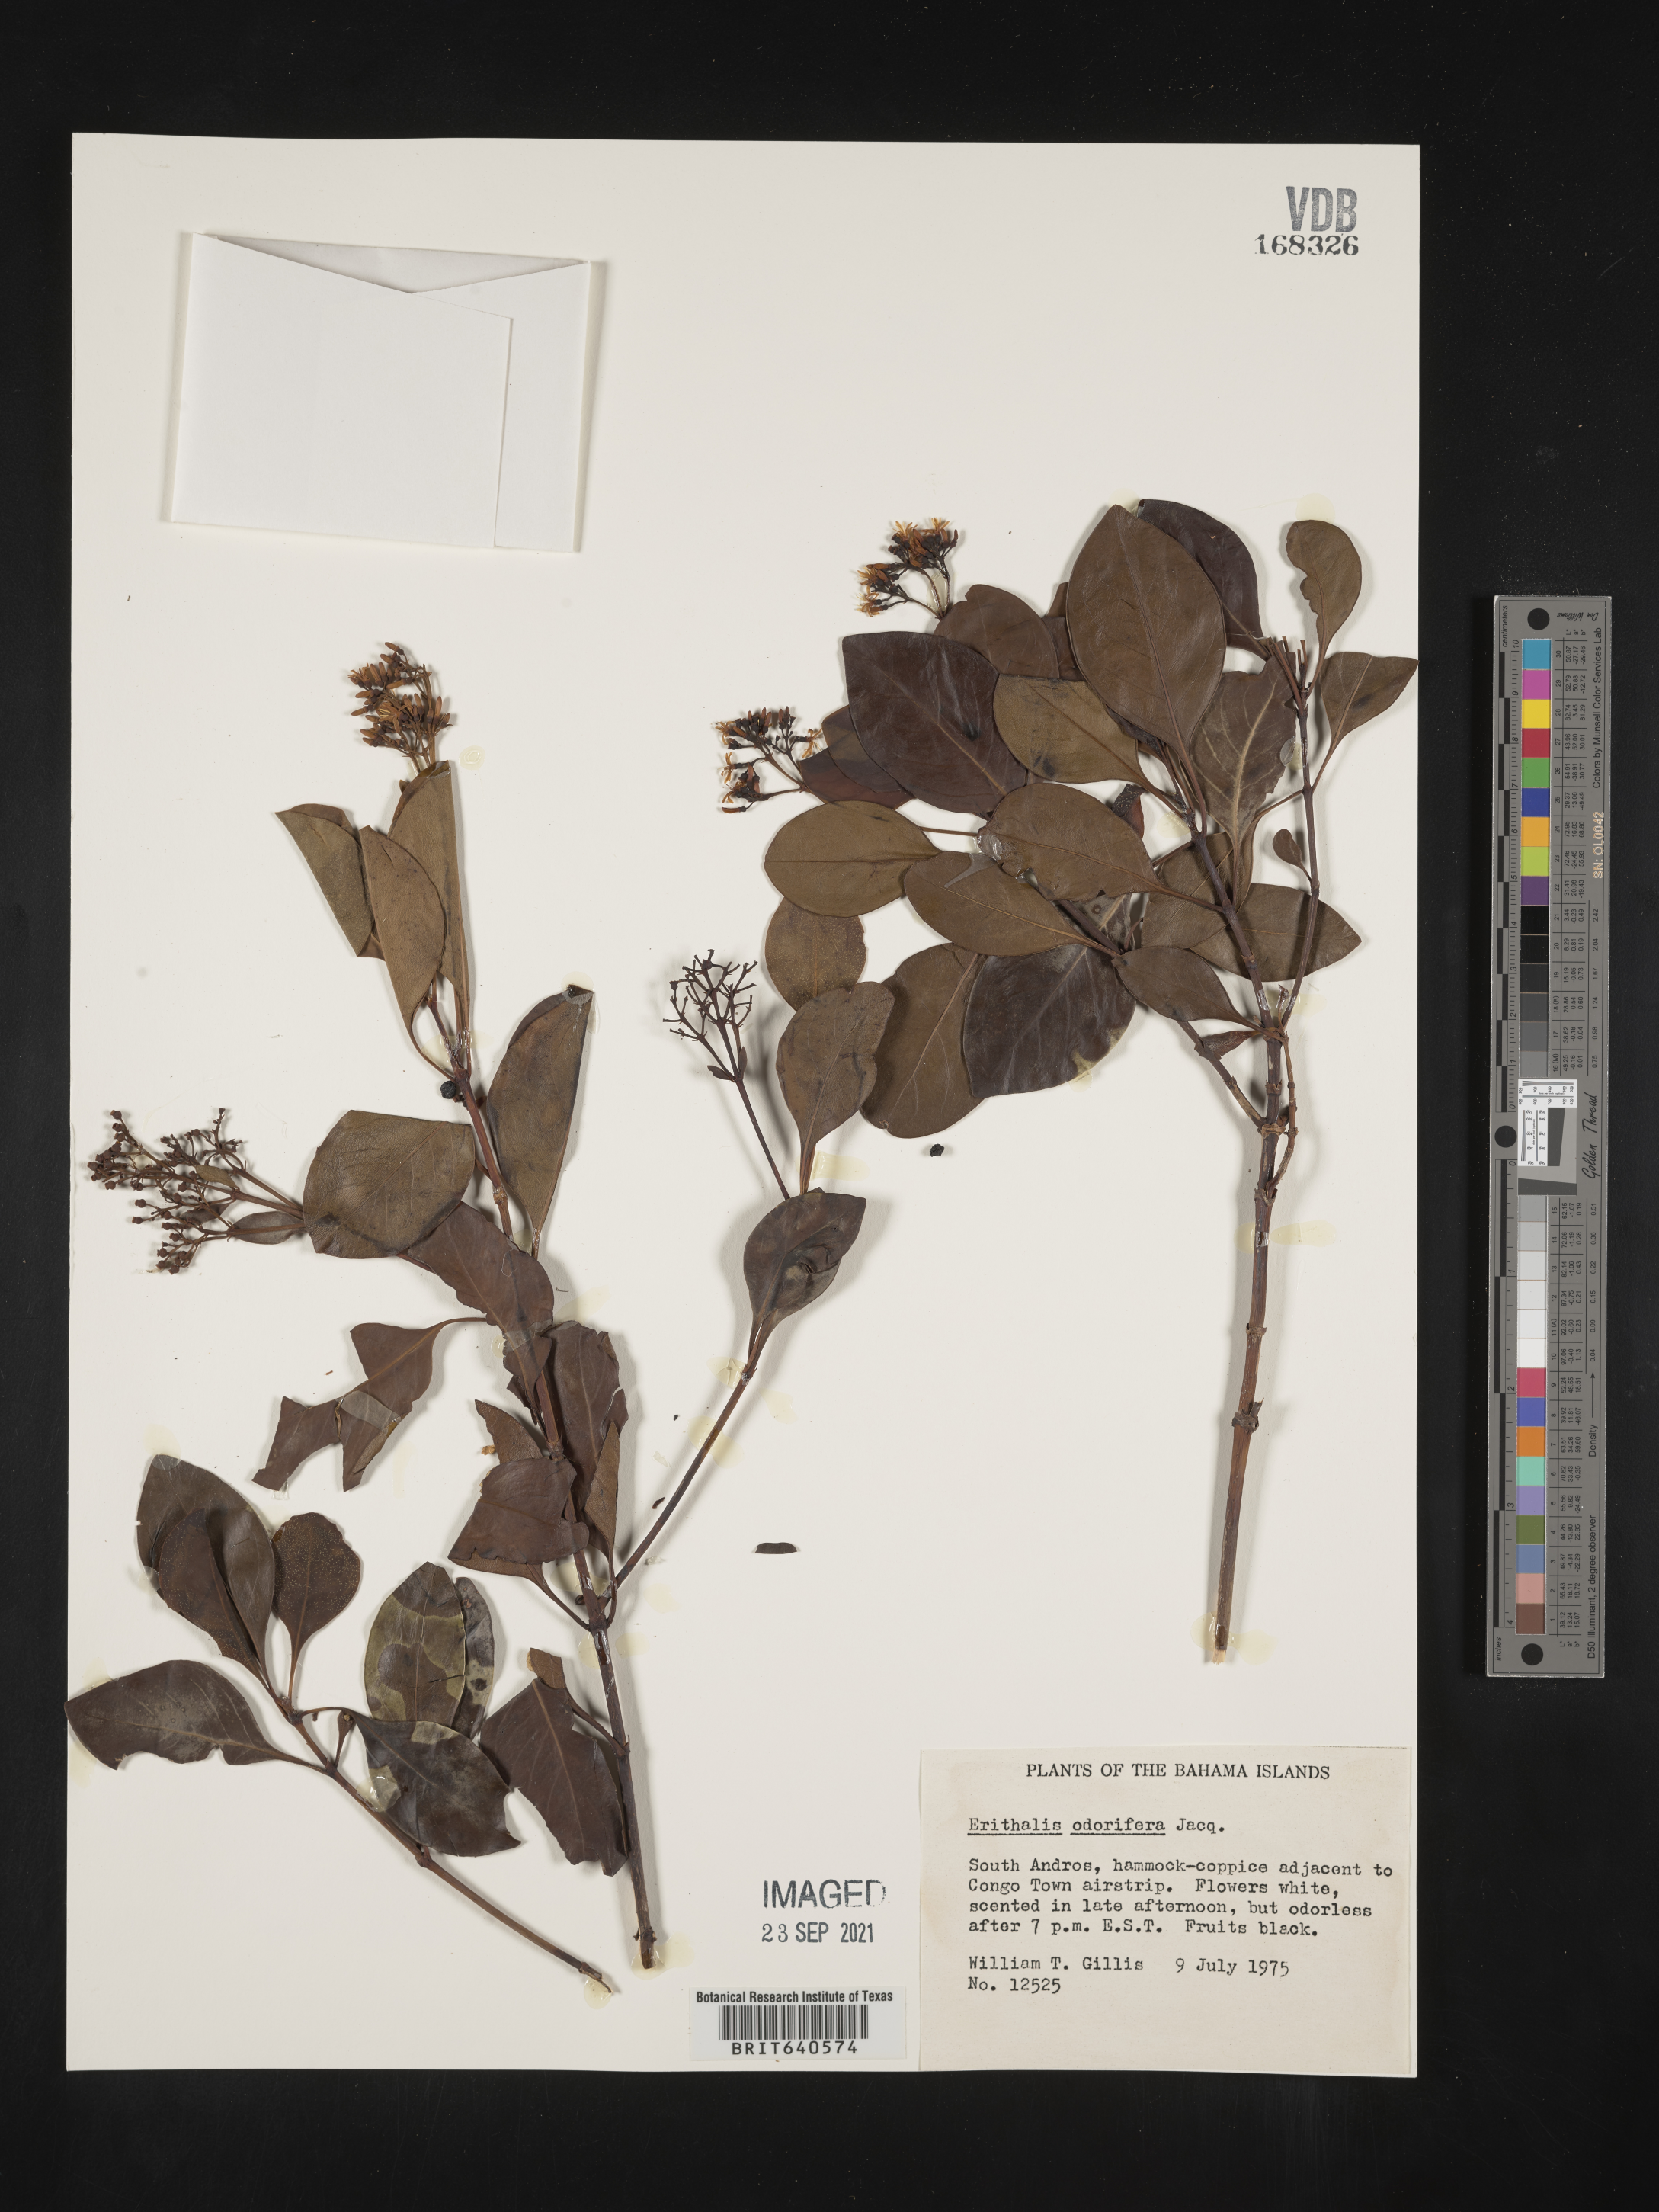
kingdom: Plantae
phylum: Tracheophyta
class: Magnoliopsida
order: Gentianales
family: Rubiaceae
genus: Erithalis
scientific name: Erithalis
